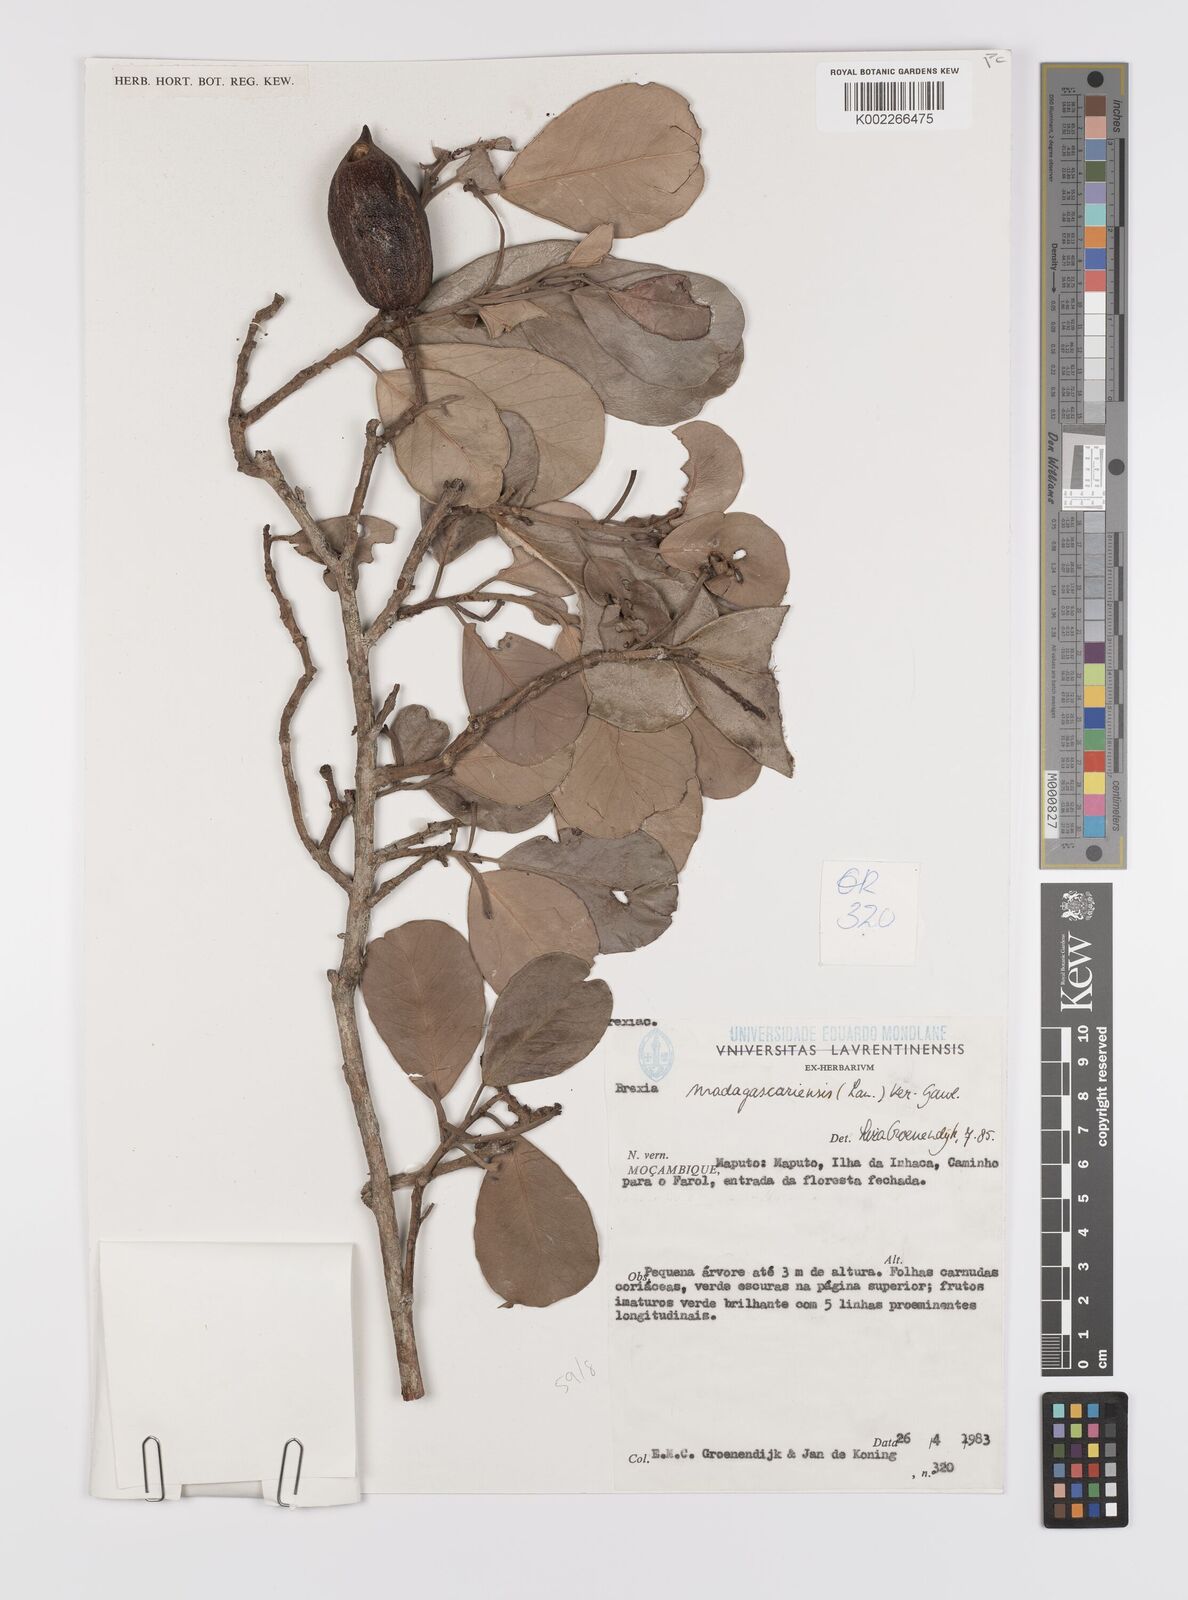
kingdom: Plantae
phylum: Tracheophyta
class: Magnoliopsida
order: Celastrales
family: Celastraceae
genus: Brexia
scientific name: Brexia madagascariensis
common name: Brexia
